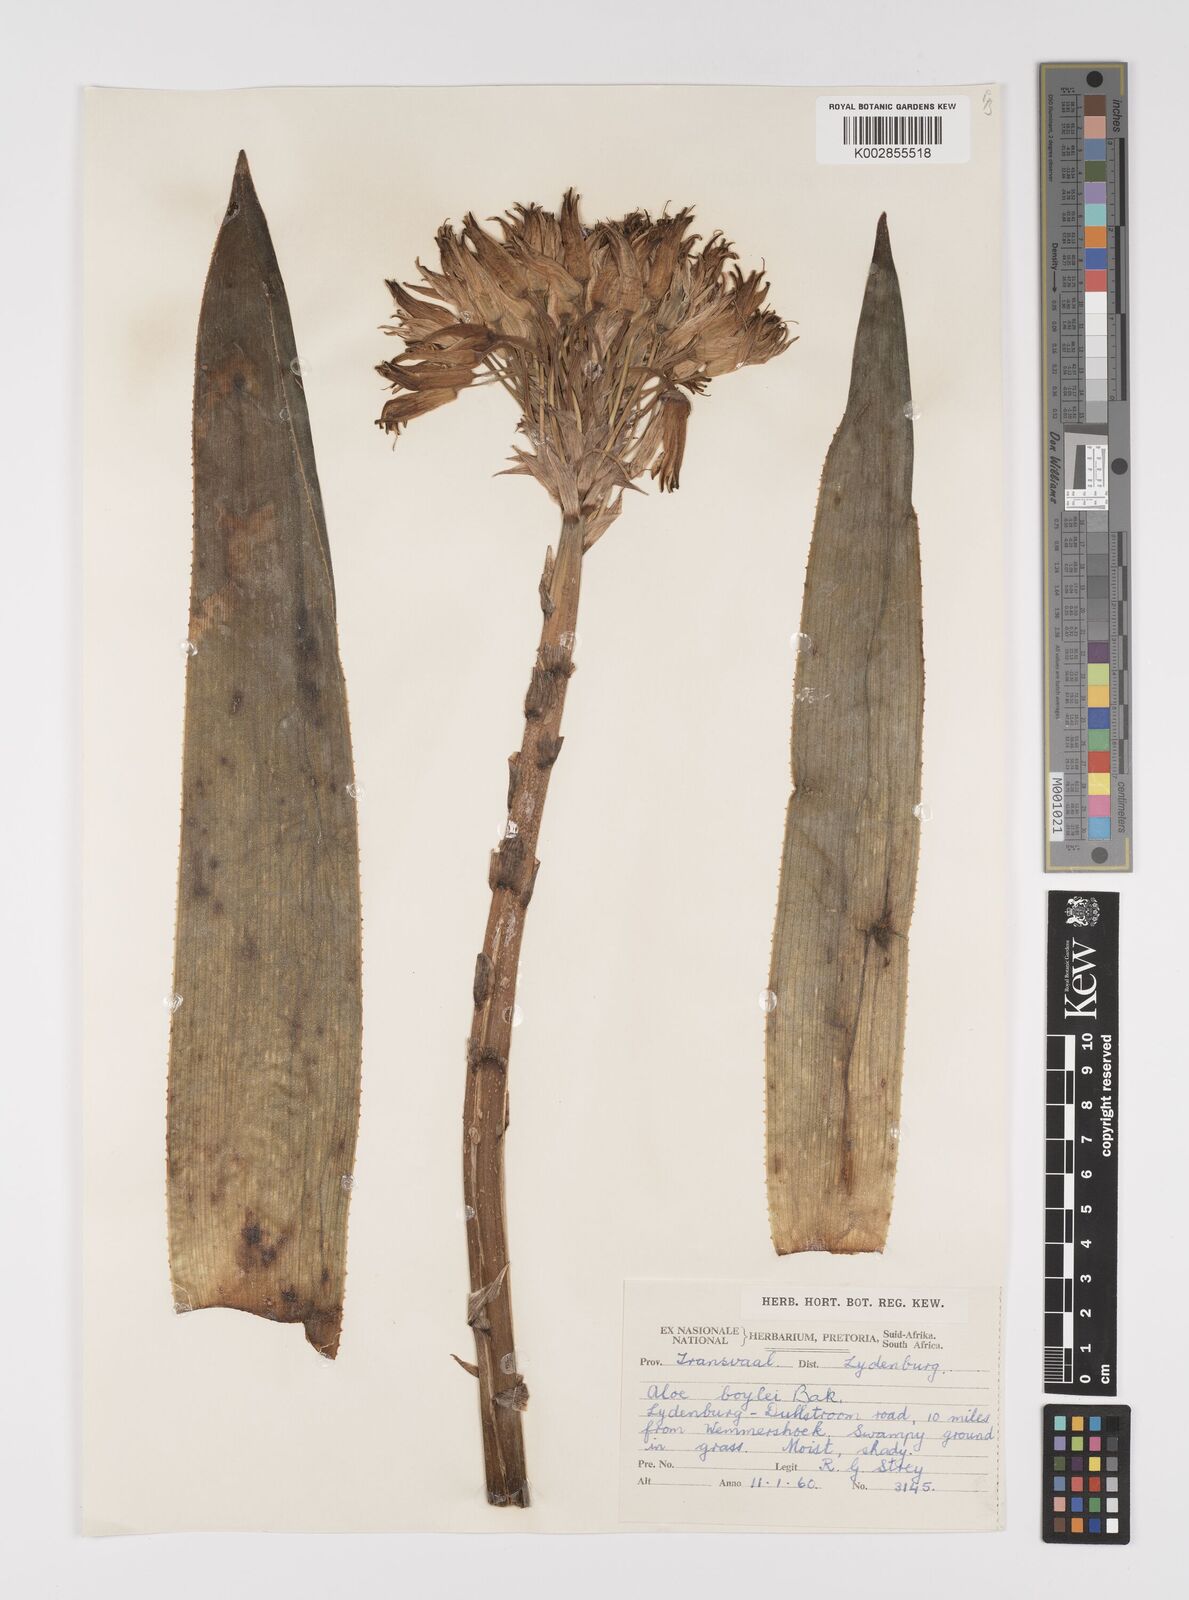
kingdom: Plantae
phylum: Tracheophyta
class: Liliopsida
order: Asparagales
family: Asphodelaceae
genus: Aloe
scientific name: Aloe boylei
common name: Broad-leaved grass aloe
